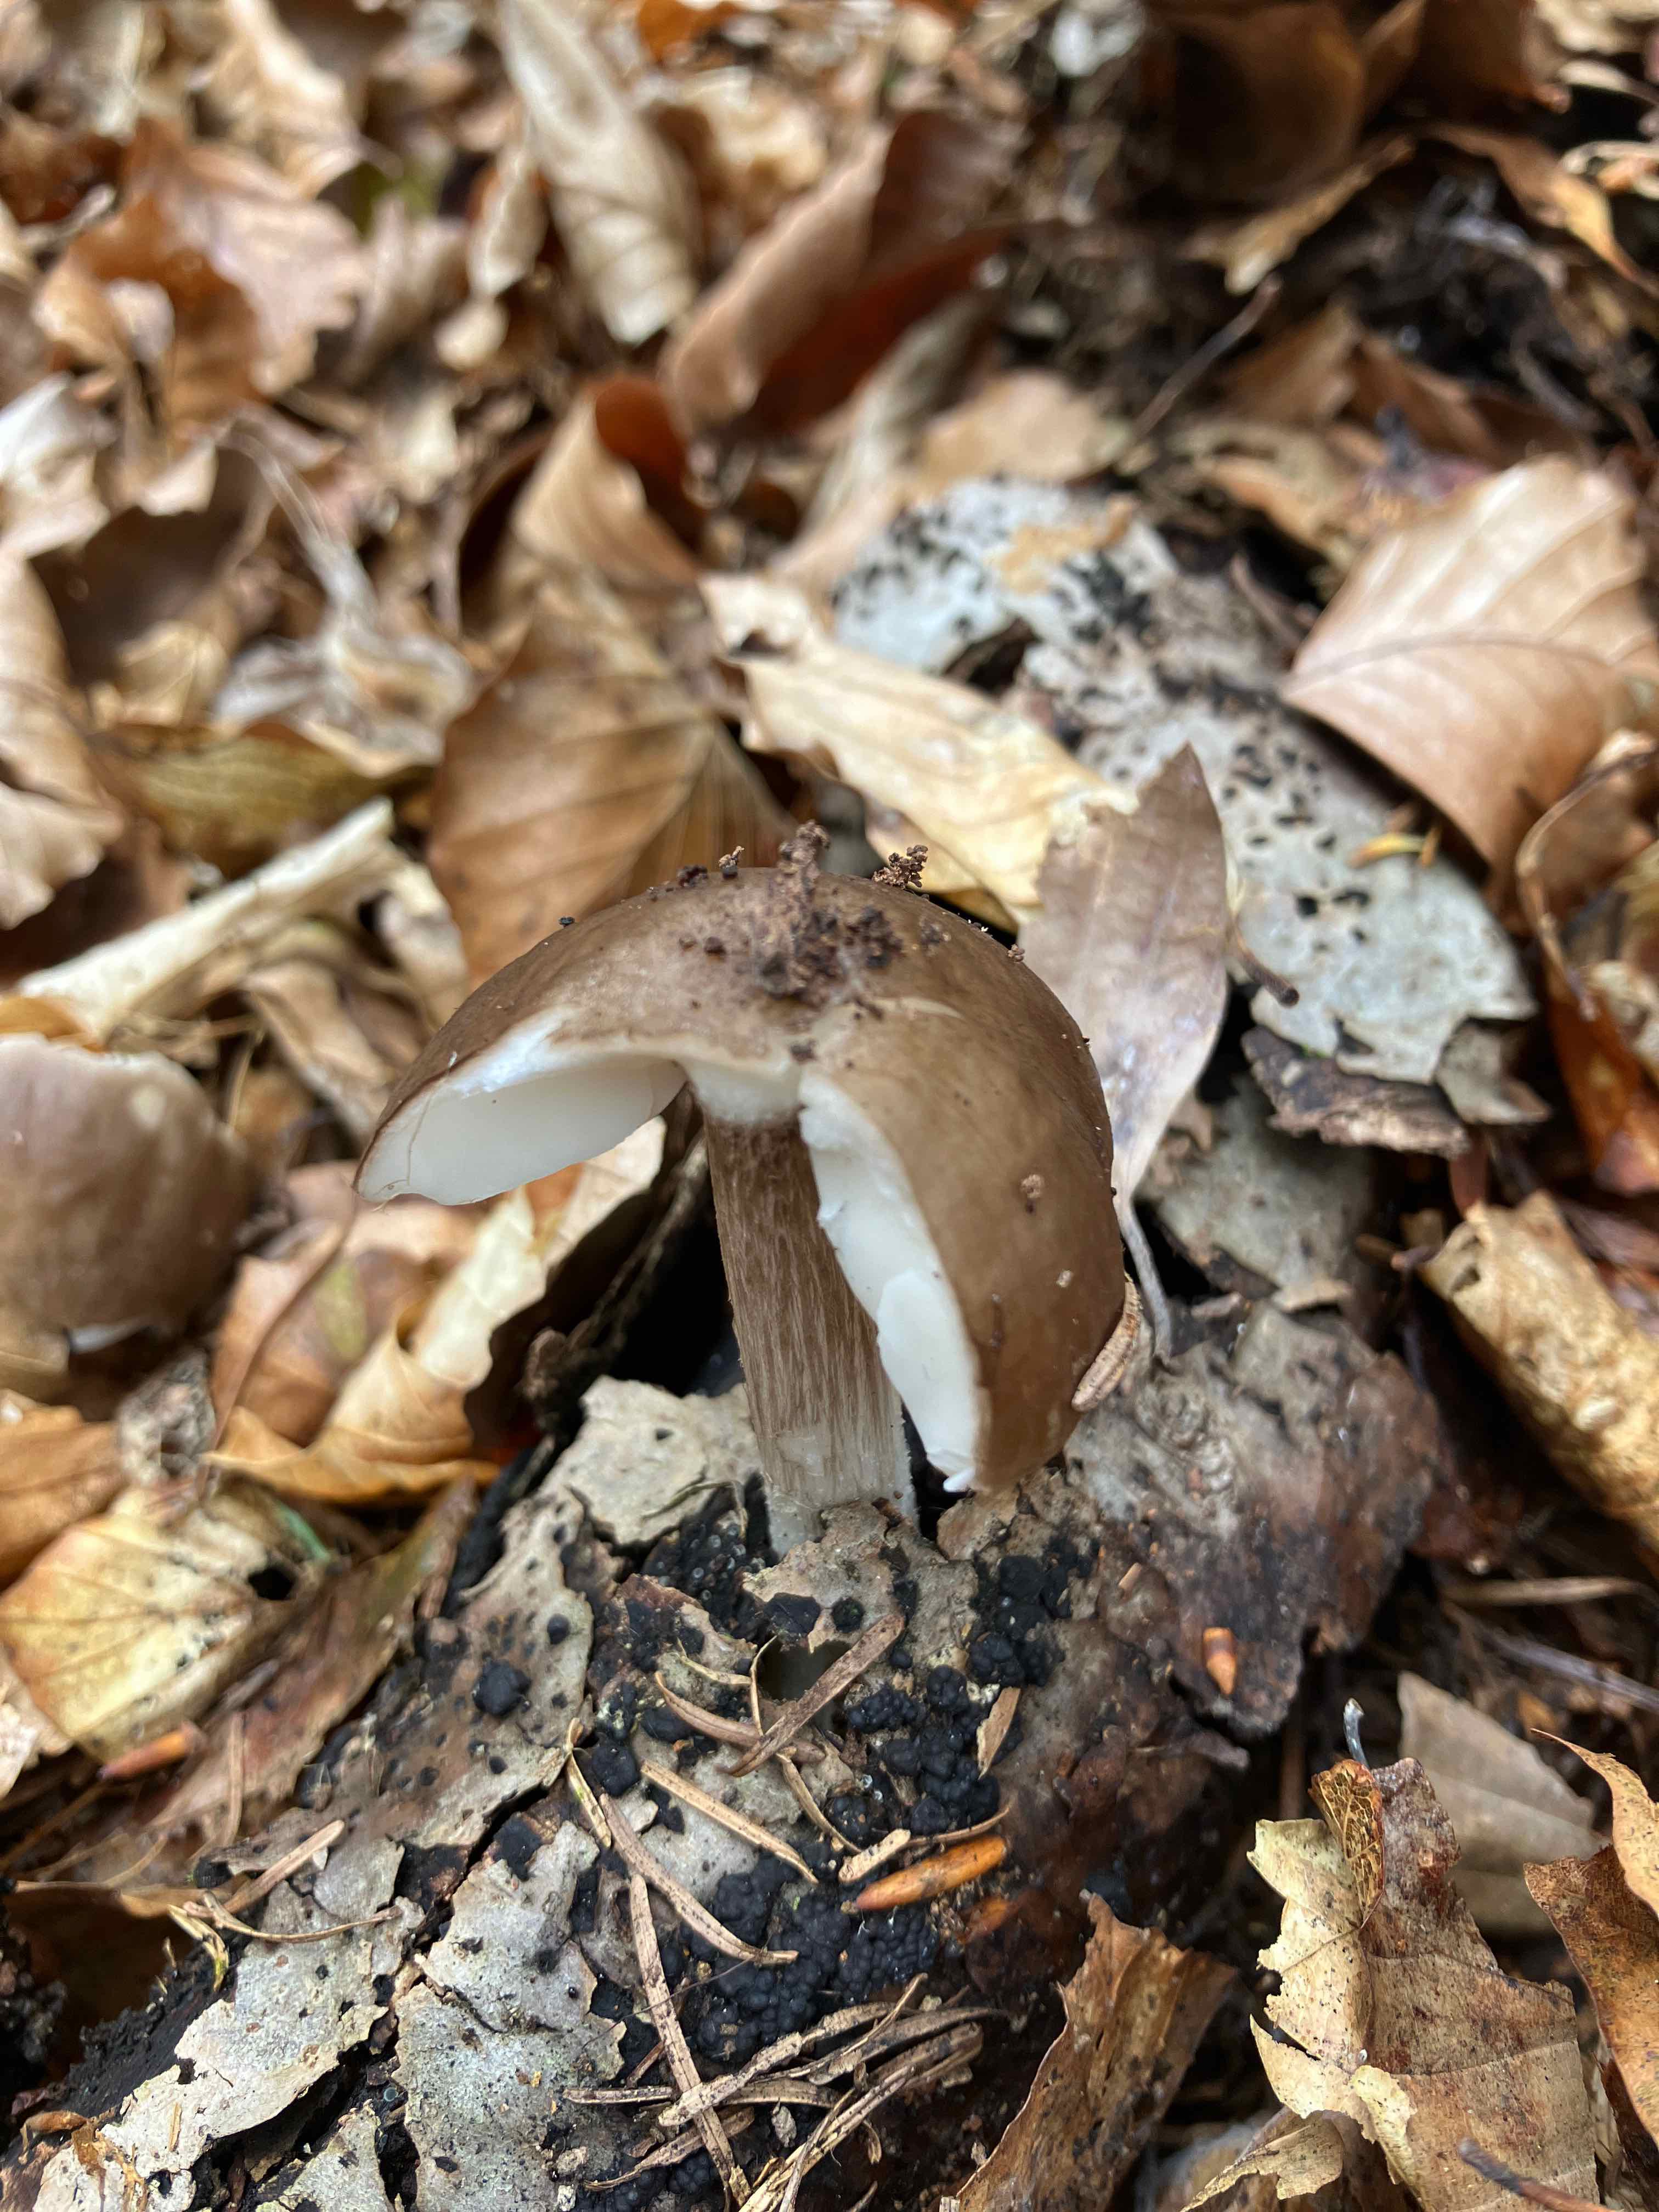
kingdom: Fungi
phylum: Basidiomycota
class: Agaricomycetes
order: Agaricales
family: Pluteaceae
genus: Pluteus
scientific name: Pluteus cervinus
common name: sodfarvet skærmhat
